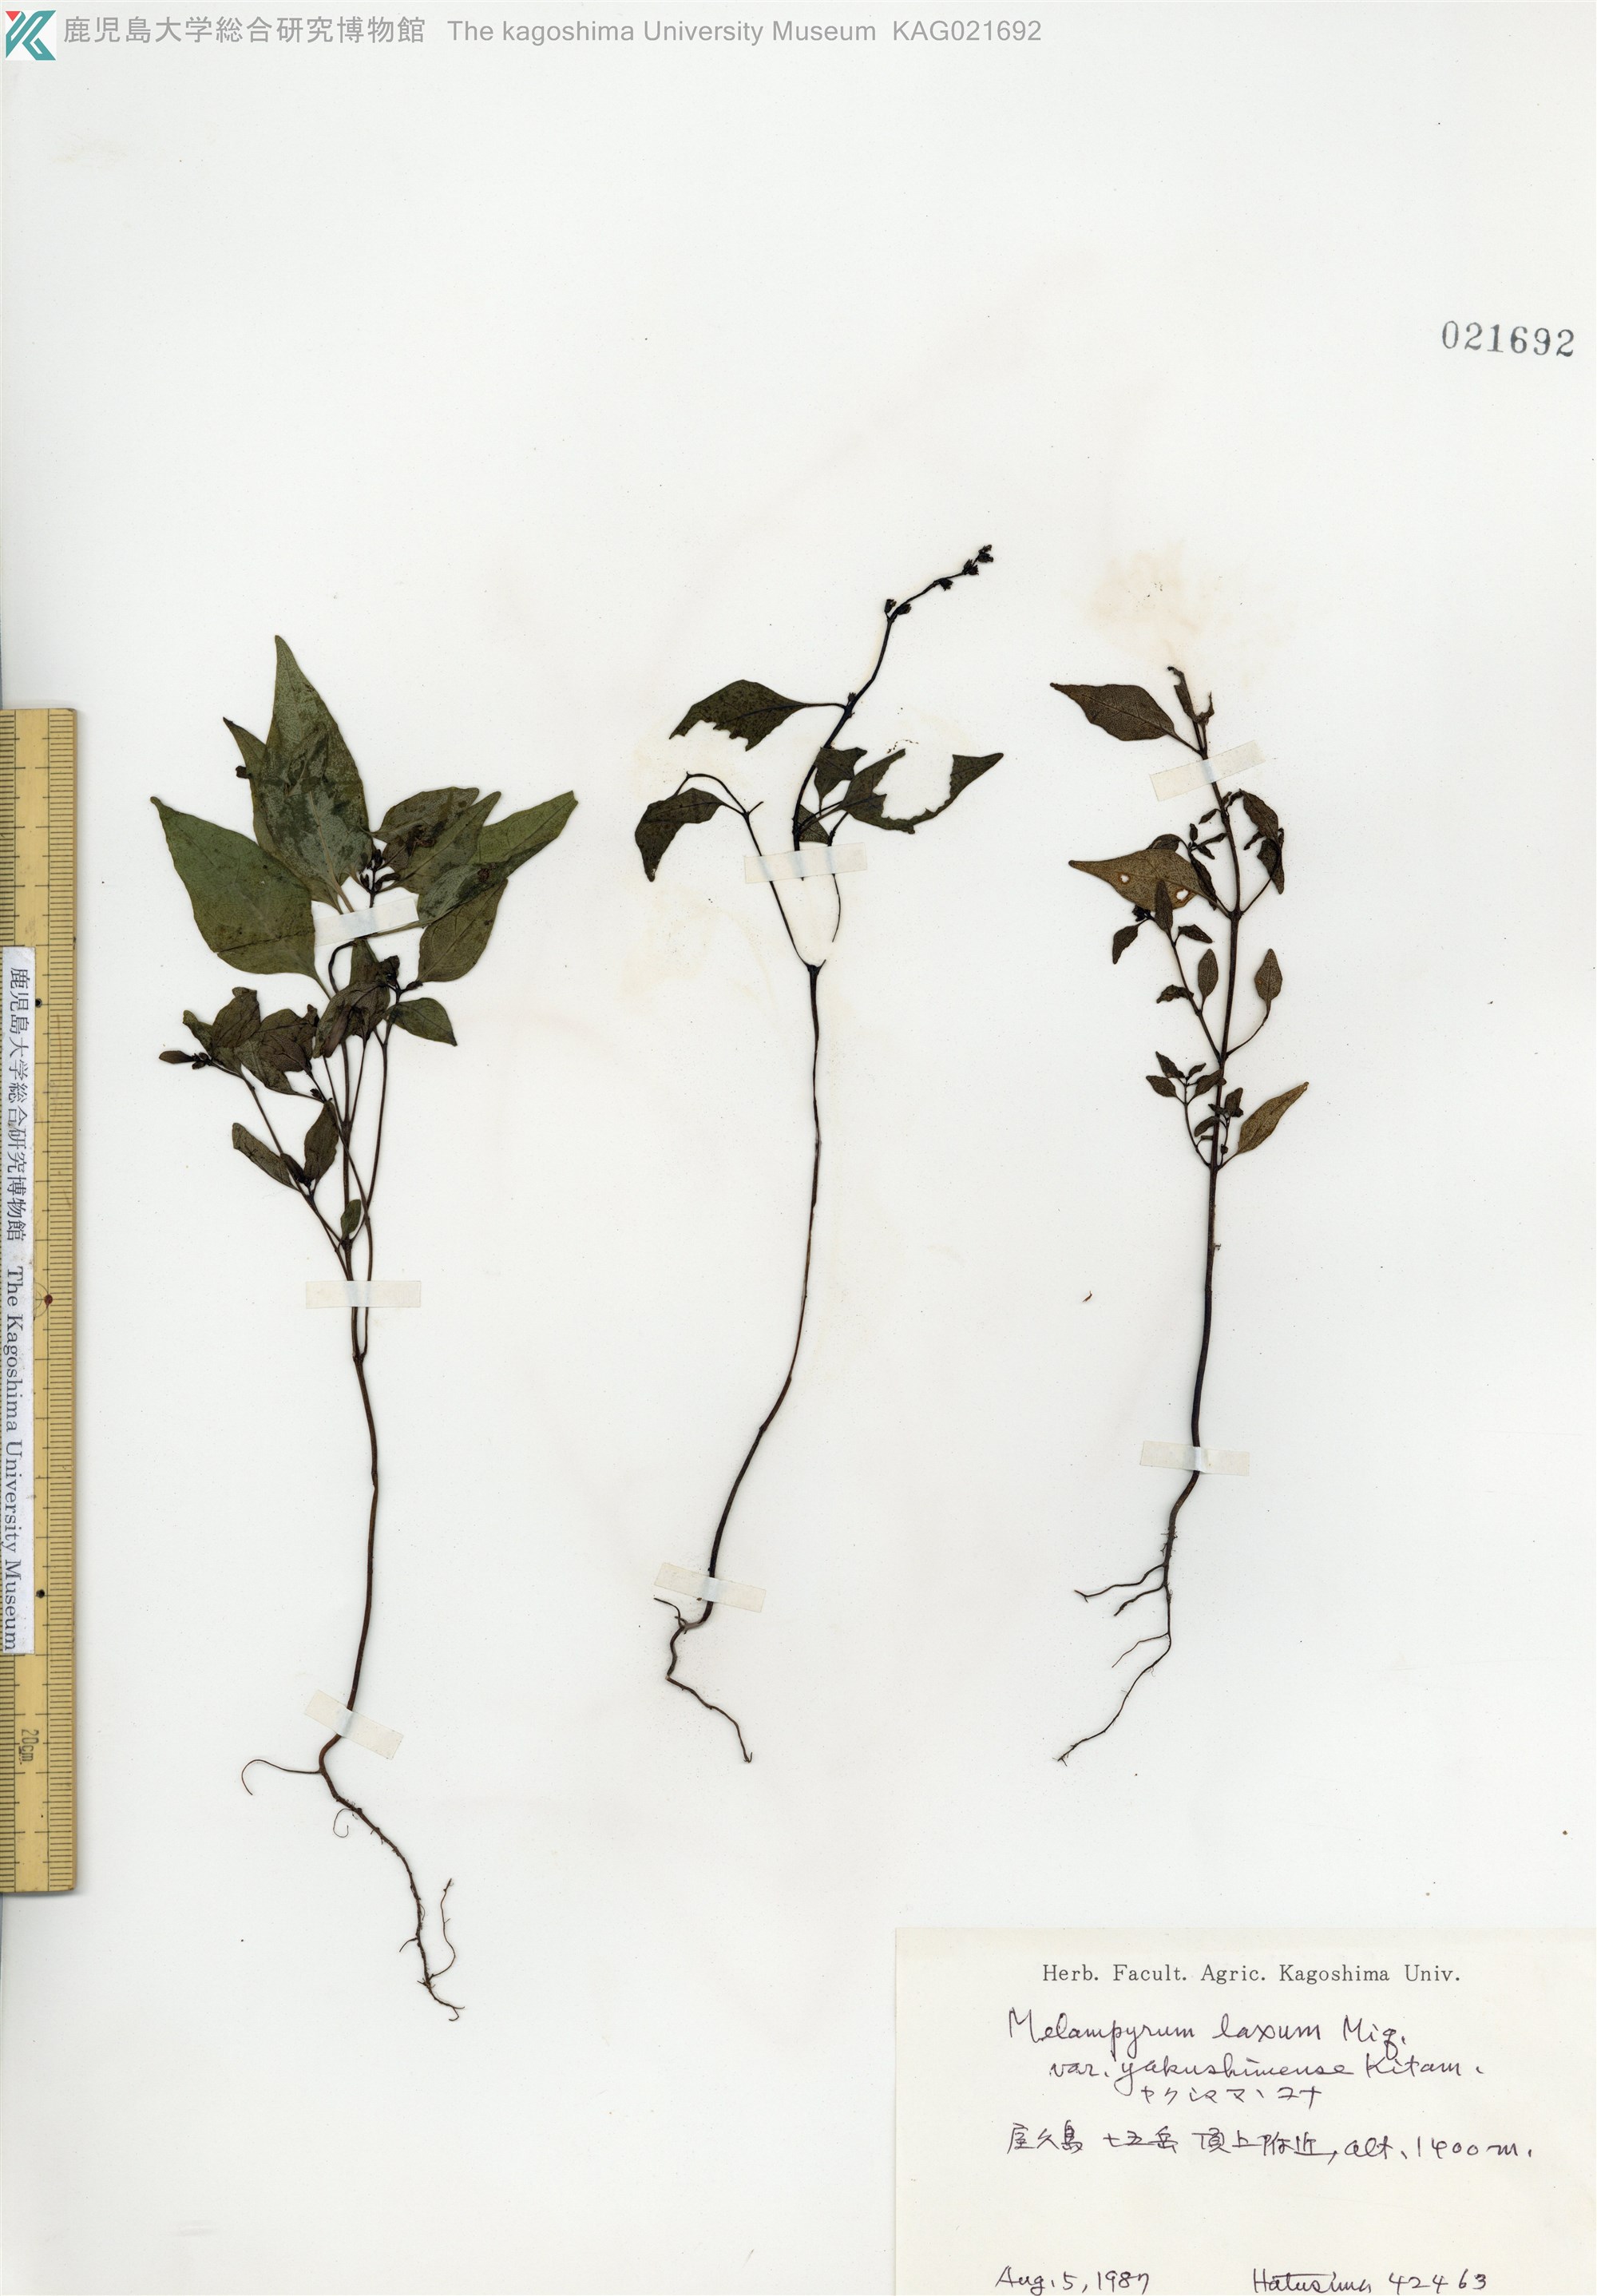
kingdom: Plantae
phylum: Tracheophyta
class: Magnoliopsida
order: Lamiales
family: Orobanchaceae
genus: Melampyrum
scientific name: Melampyrum laxum
